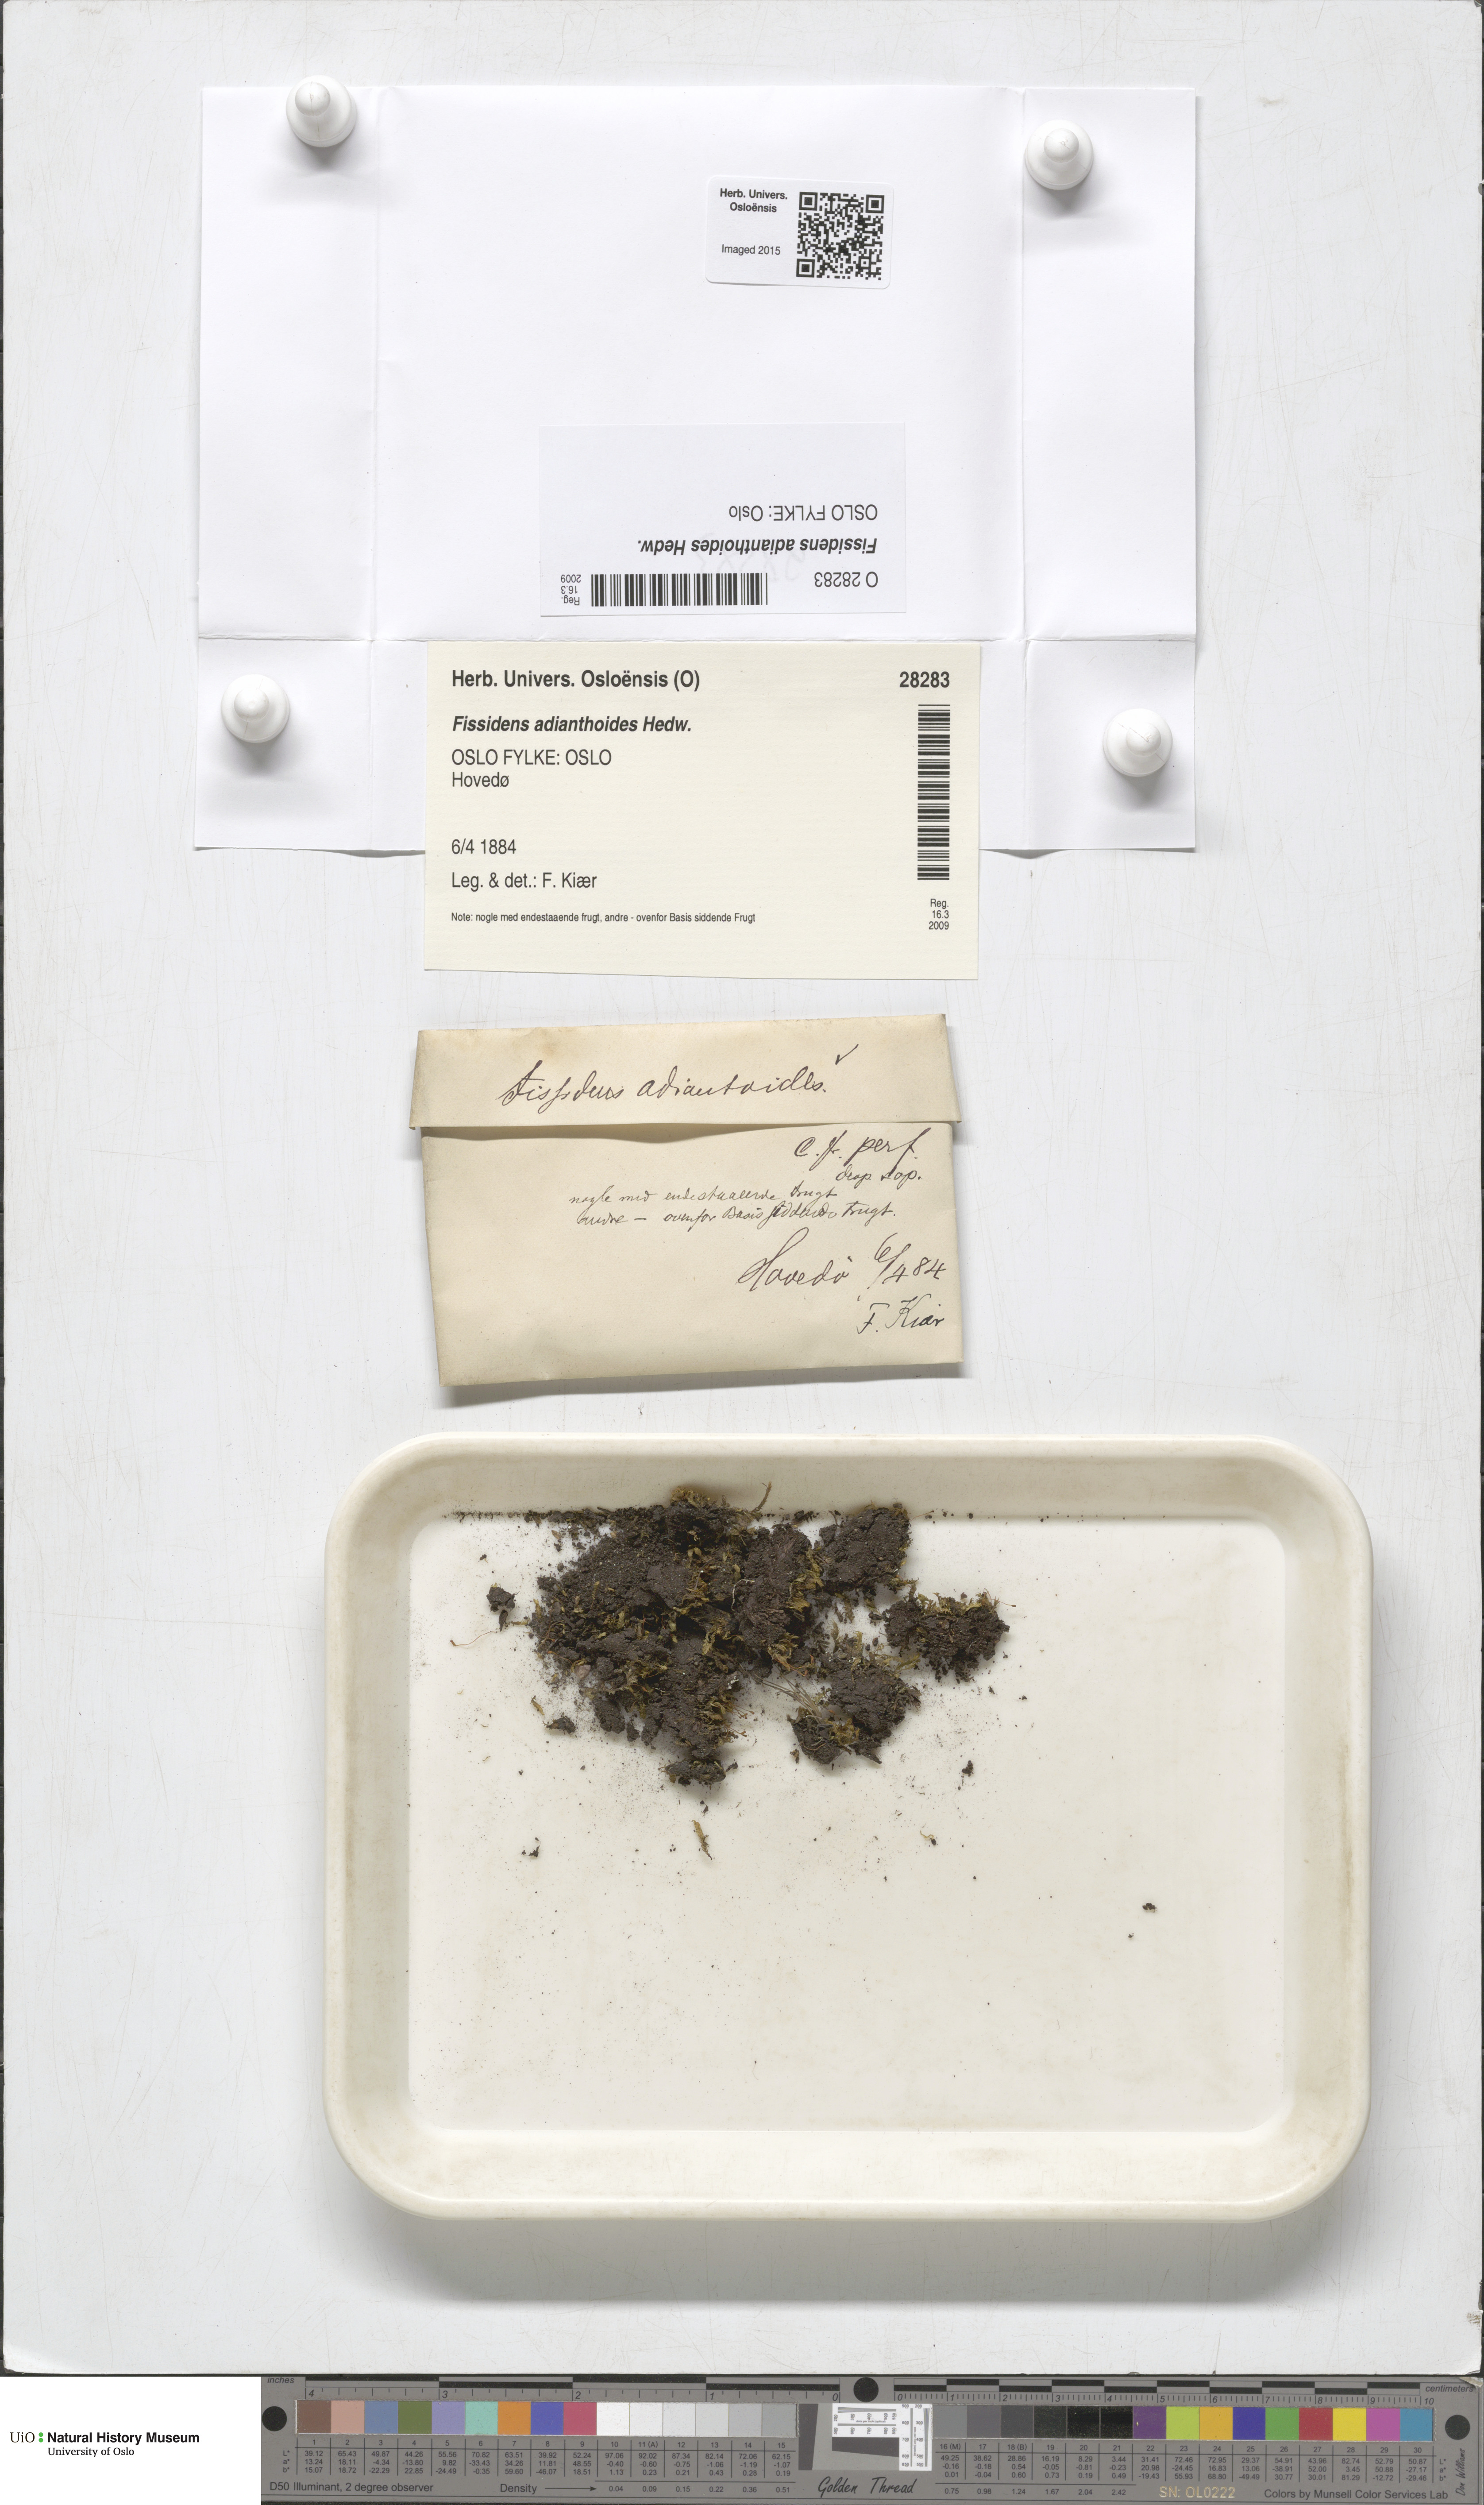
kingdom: Plantae
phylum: Bryophyta
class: Bryopsida
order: Dicranales
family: Fissidentaceae
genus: Fissidens
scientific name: Fissidens adianthoides
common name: Maidenhair pocket moss
